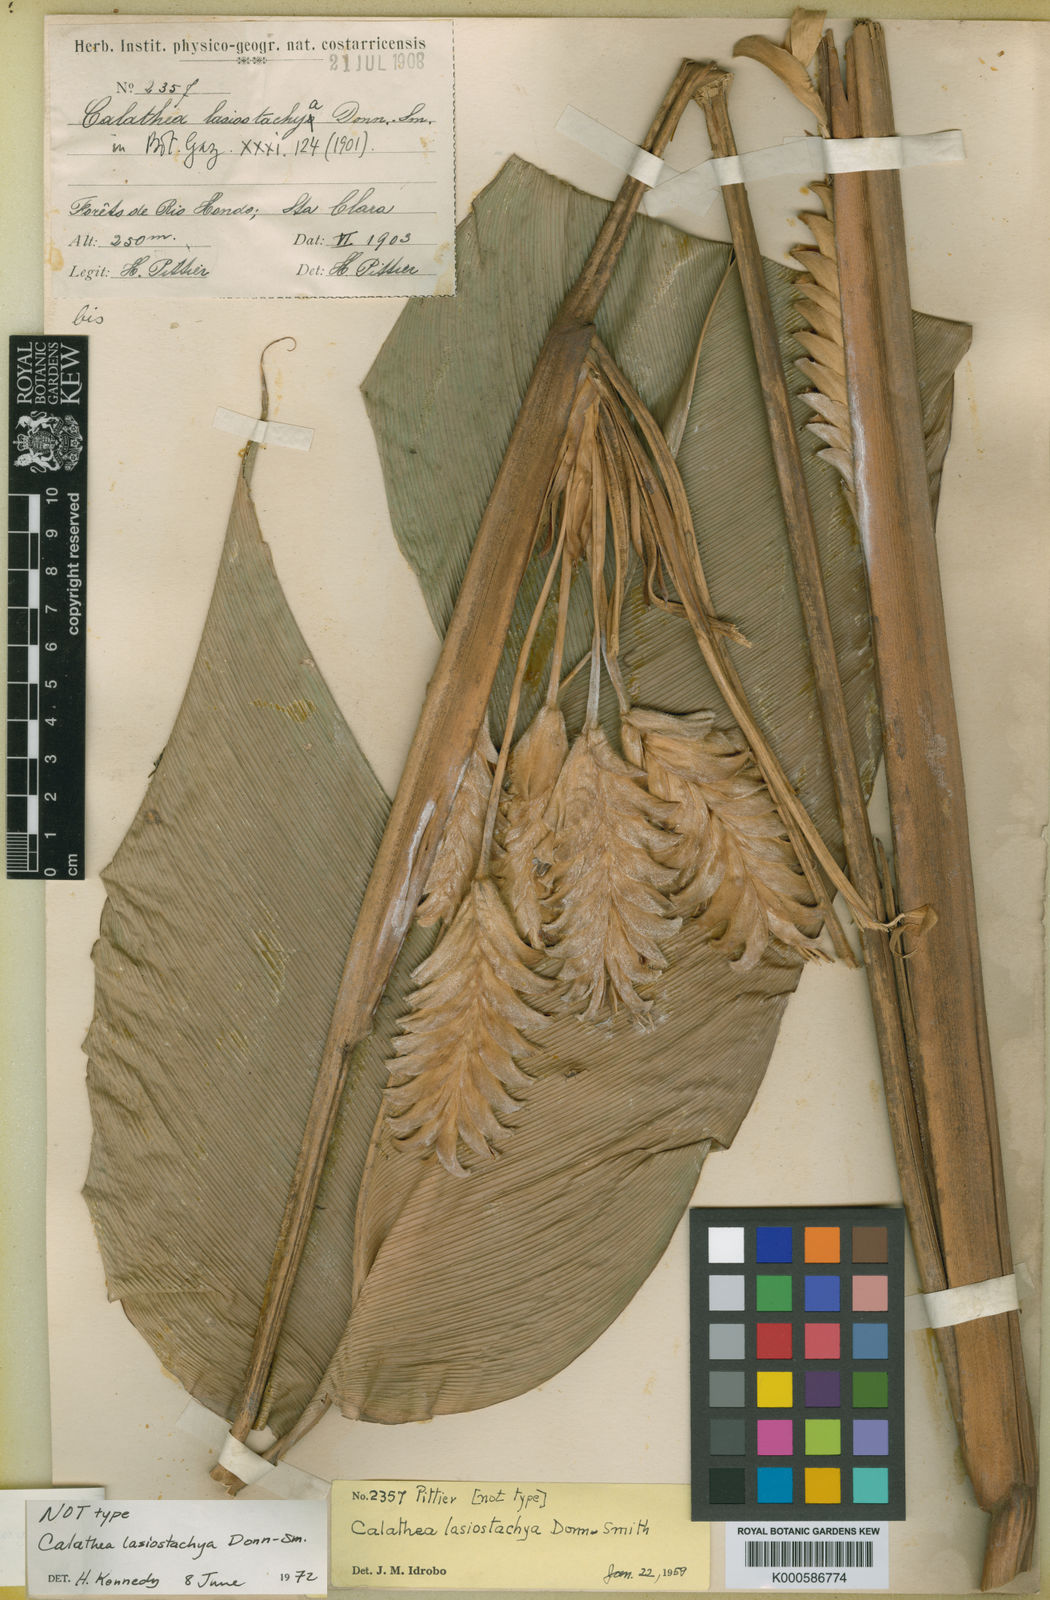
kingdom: Plantae
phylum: Tracheophyta
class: Liliopsida
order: Zingiberales
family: Marantaceae
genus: Calathea
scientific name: Calathea lasiostachya
